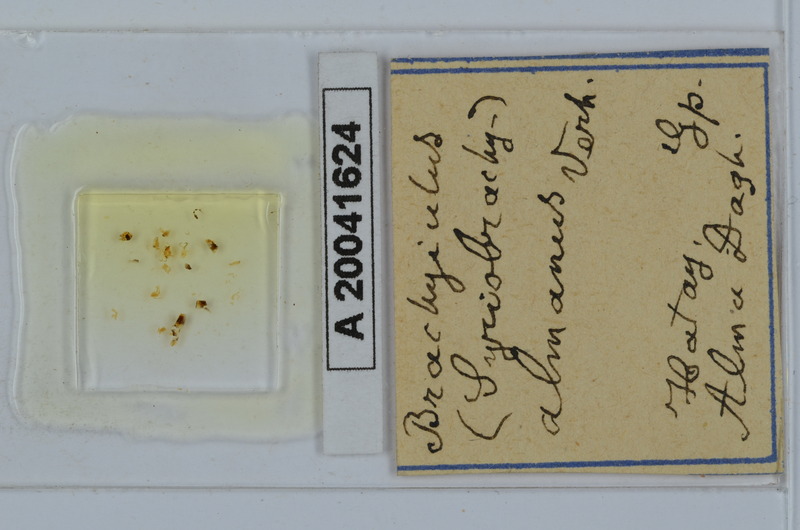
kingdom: Animalia
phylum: Arthropoda
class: Diplopoda
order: Julida
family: Julidae
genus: Brachyiulus
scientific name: Brachyiulus
